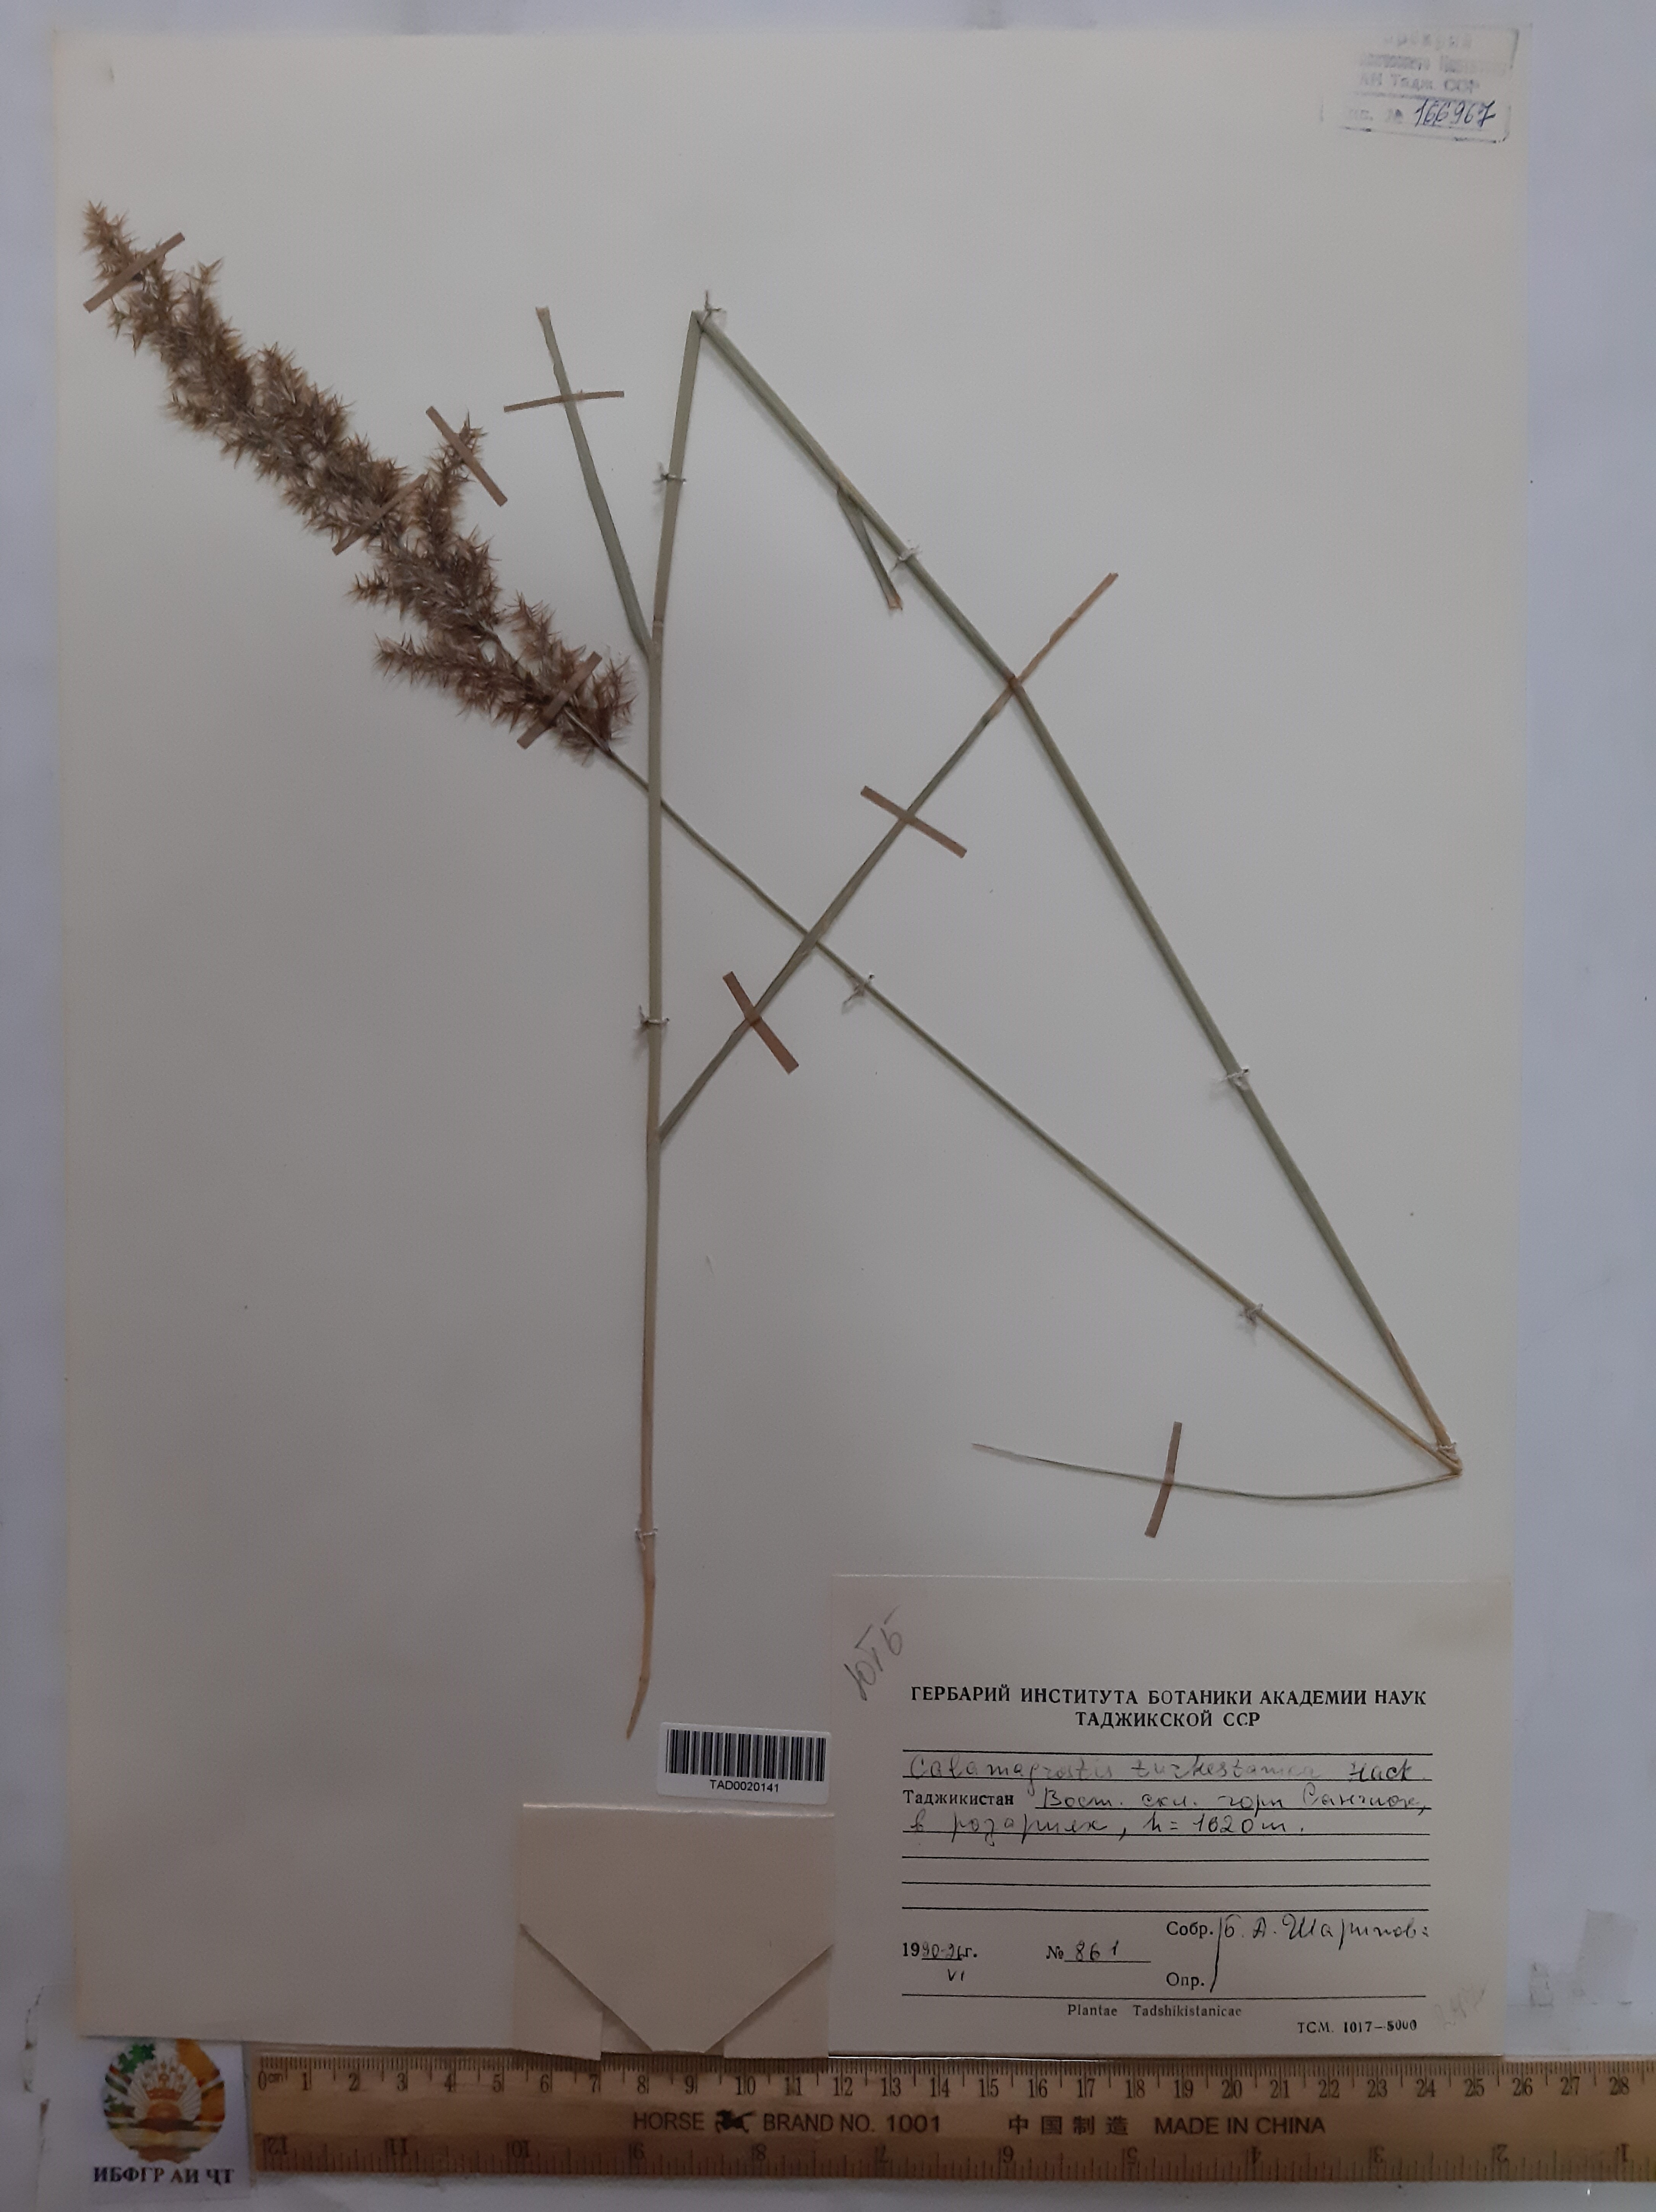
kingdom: Plantae
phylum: Tracheophyta
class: Liliopsida
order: Poales
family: Poaceae
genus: Calamagrostis
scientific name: Calamagrostis turkestanica
